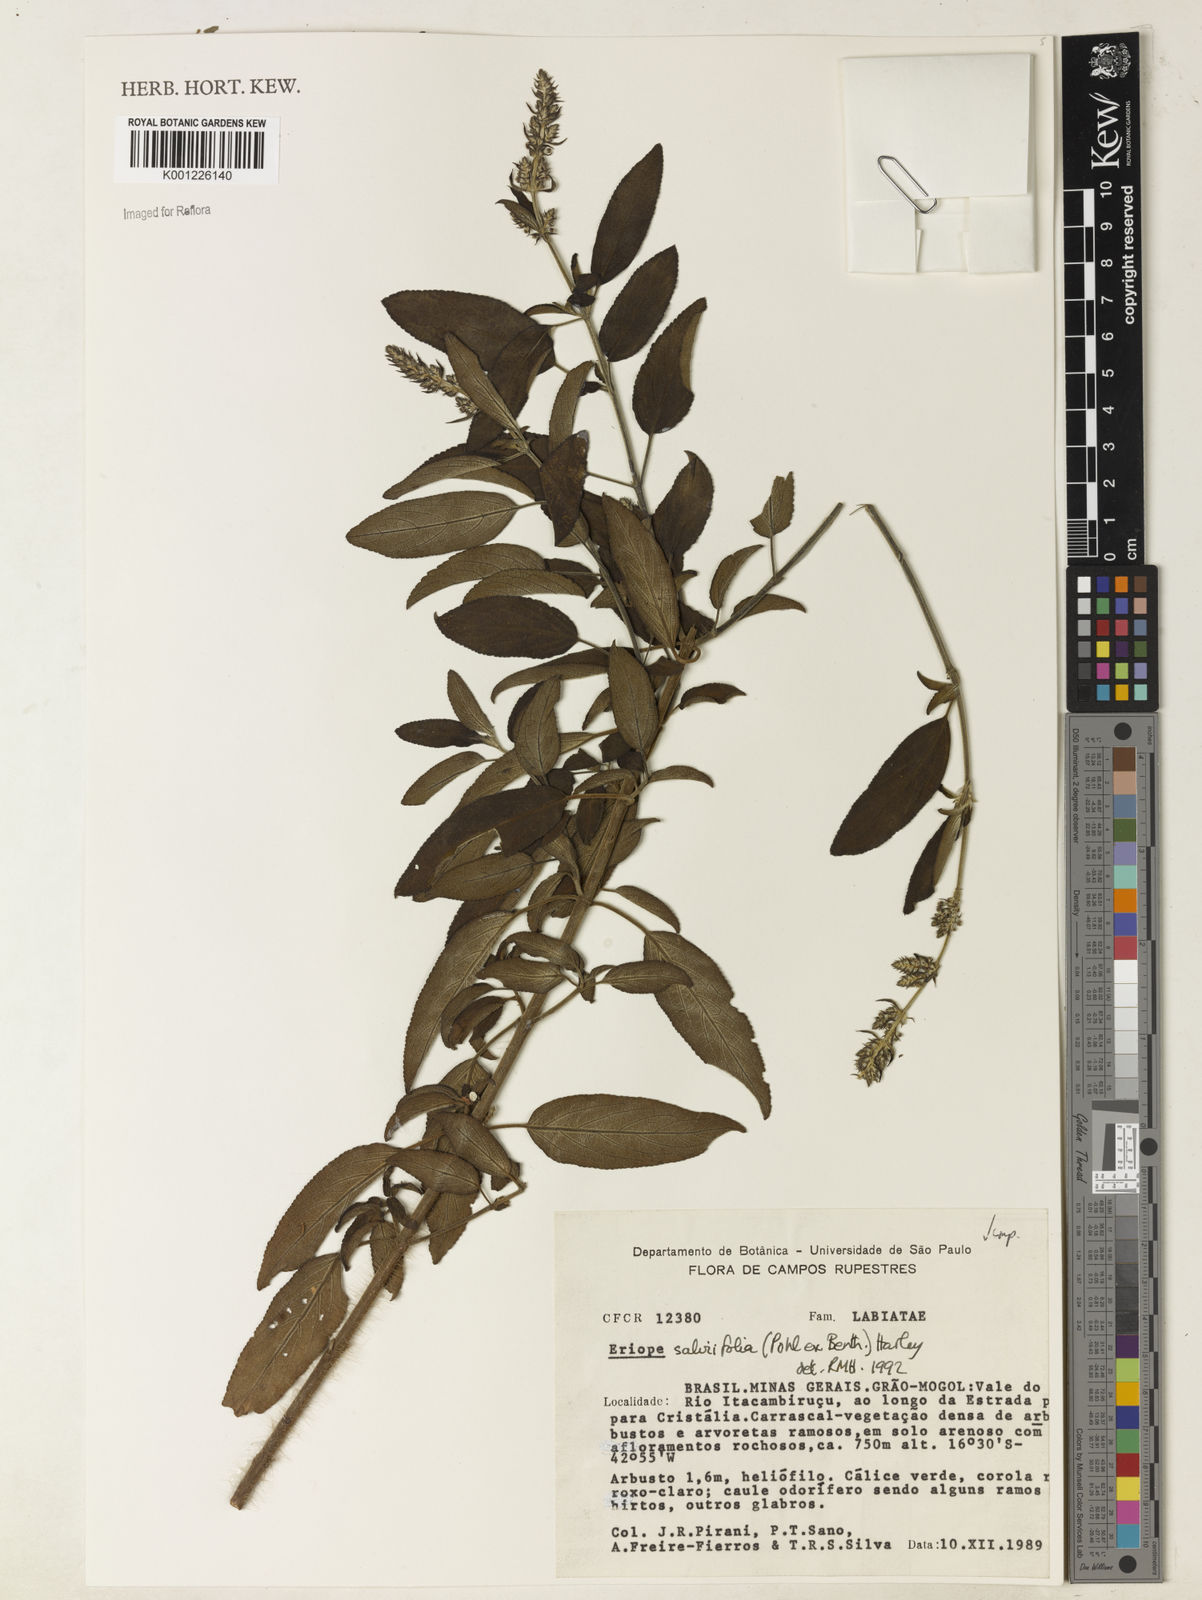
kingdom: Plantae
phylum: Tracheophyta
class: Magnoliopsida
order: Lamiales
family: Lamiaceae
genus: Eriope
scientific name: Eriope salviifolia
